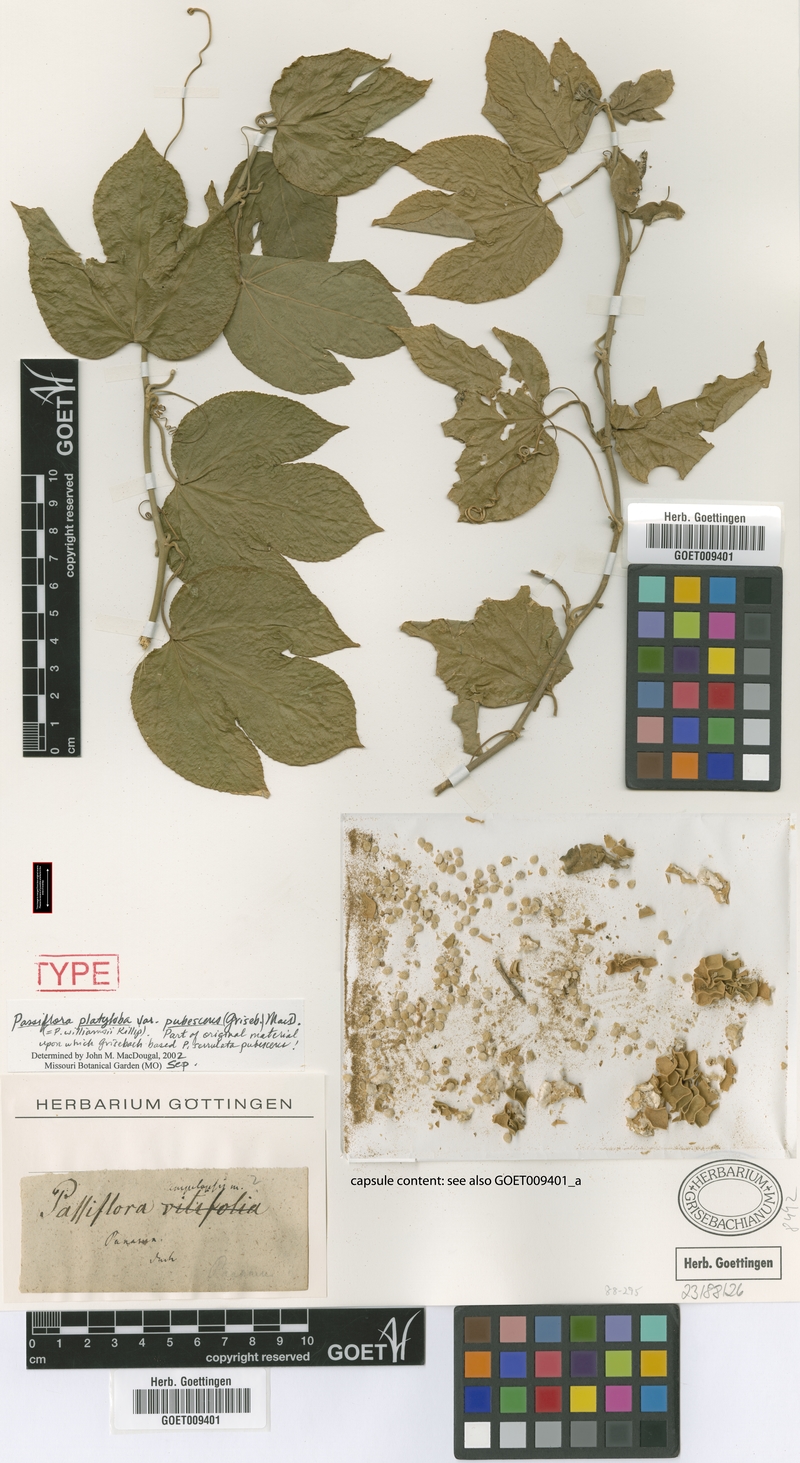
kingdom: Plantae
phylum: Tracheophyta
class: Magnoliopsida
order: Malpighiales
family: Passifloraceae
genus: Passiflora
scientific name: Passiflora platyloba
